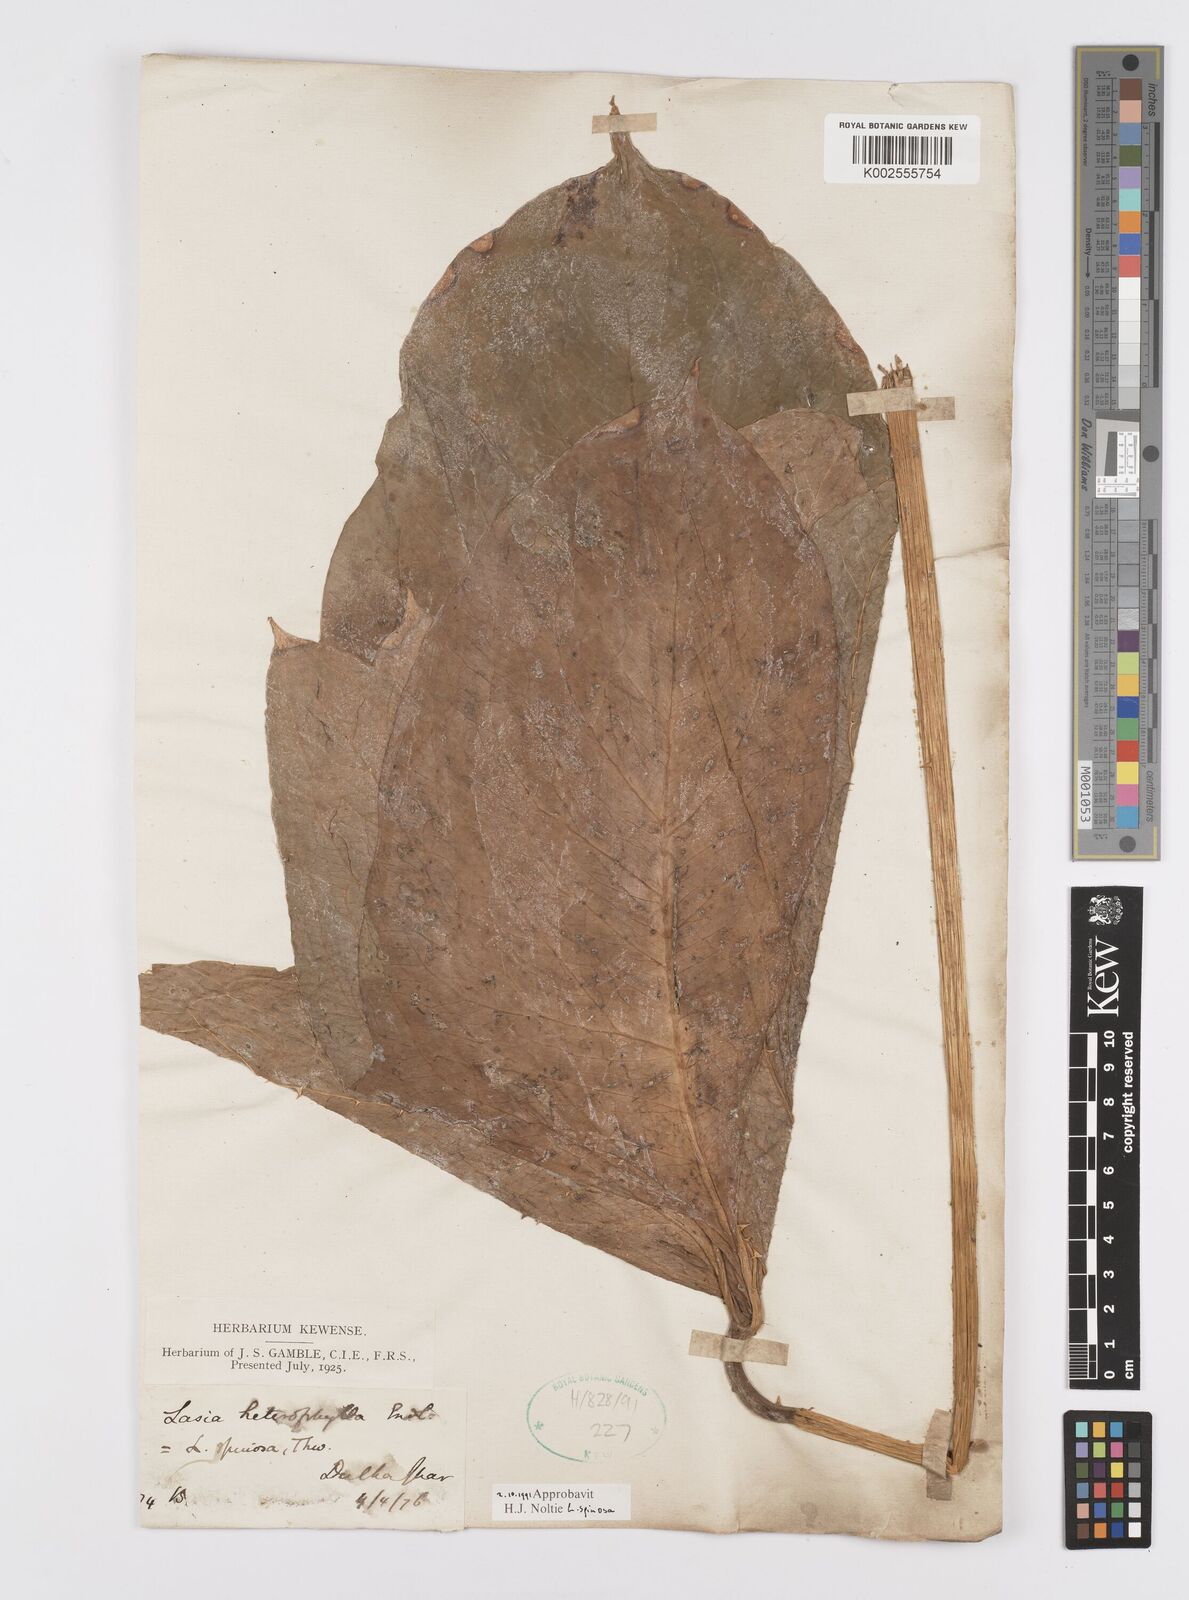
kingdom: Plantae
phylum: Tracheophyta
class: Liliopsida
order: Alismatales
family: Araceae
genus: Lasia
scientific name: Lasia spinosa
